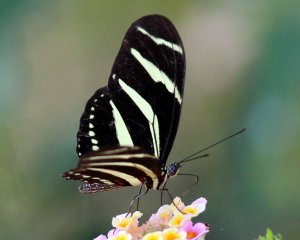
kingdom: Animalia
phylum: Arthropoda
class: Insecta
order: Lepidoptera
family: Nymphalidae
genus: Heliconius
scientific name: Heliconius charithonia
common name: Zebra Longwing
